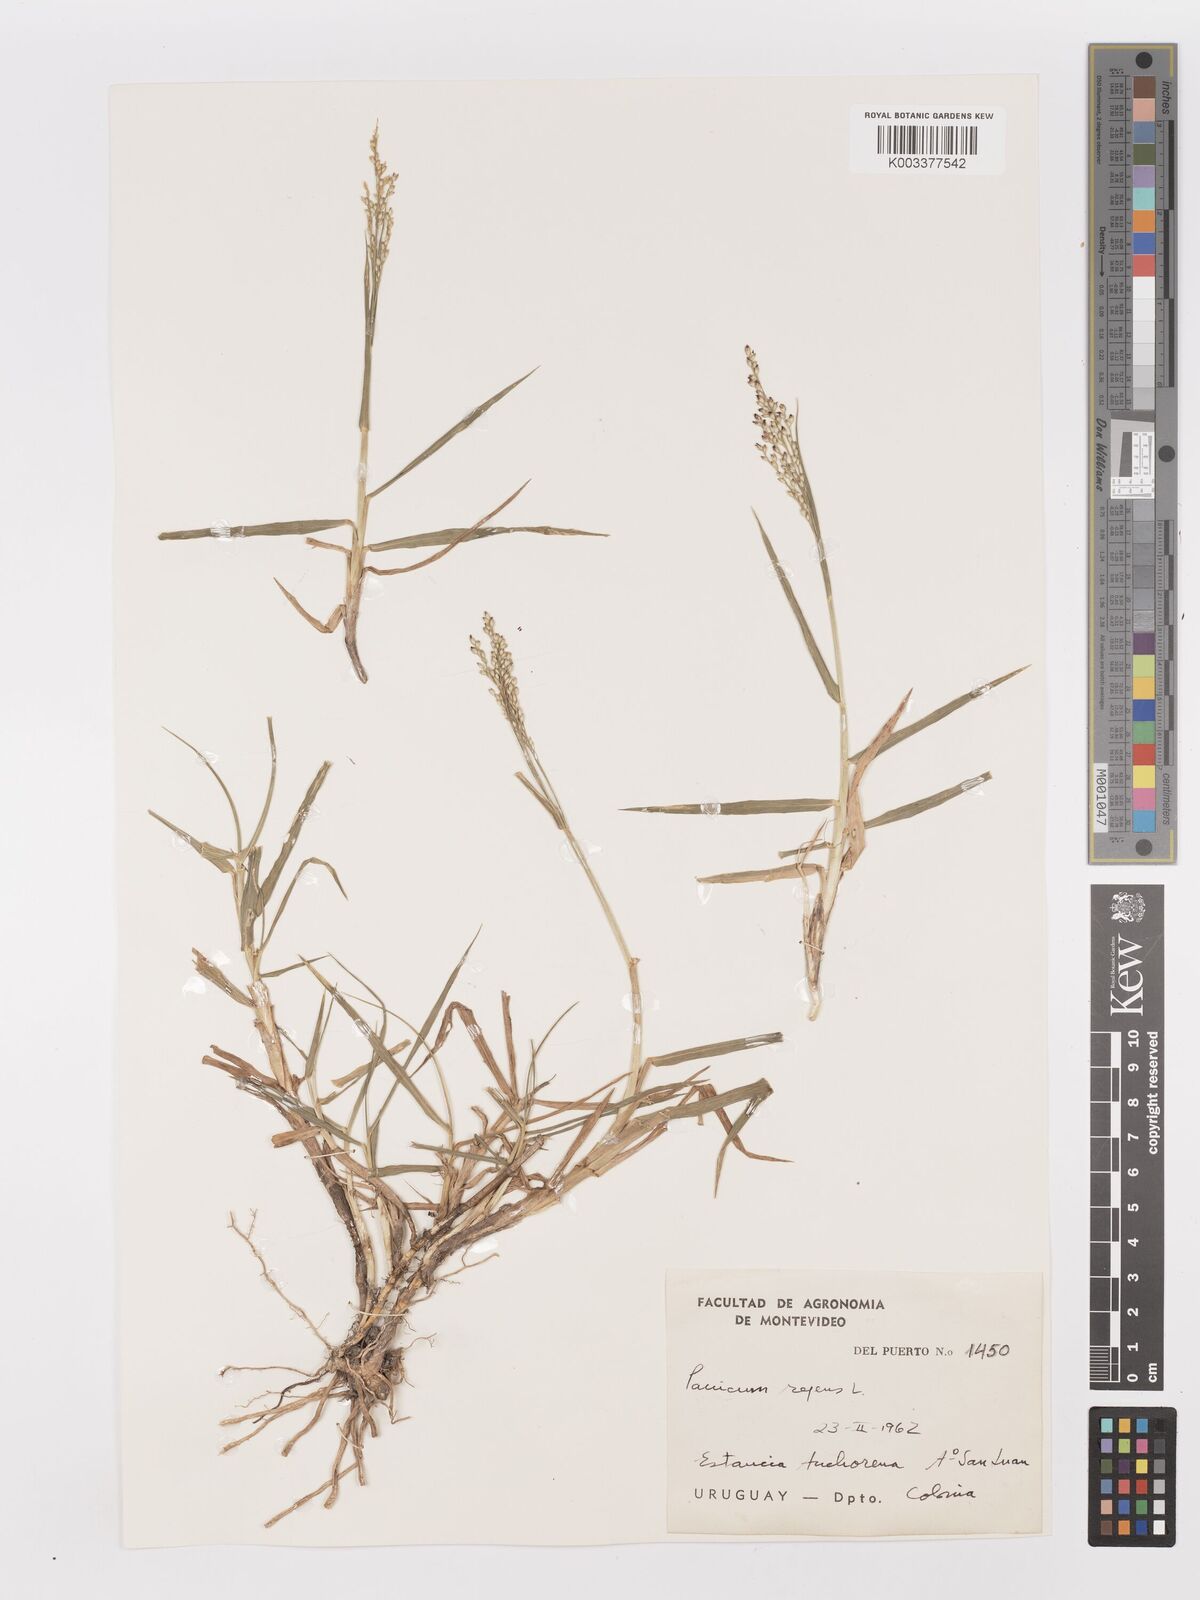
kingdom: Plantae
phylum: Tracheophyta
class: Liliopsida
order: Poales
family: Poaceae
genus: Panicum
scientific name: Panicum repens
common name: Torpedo grass
